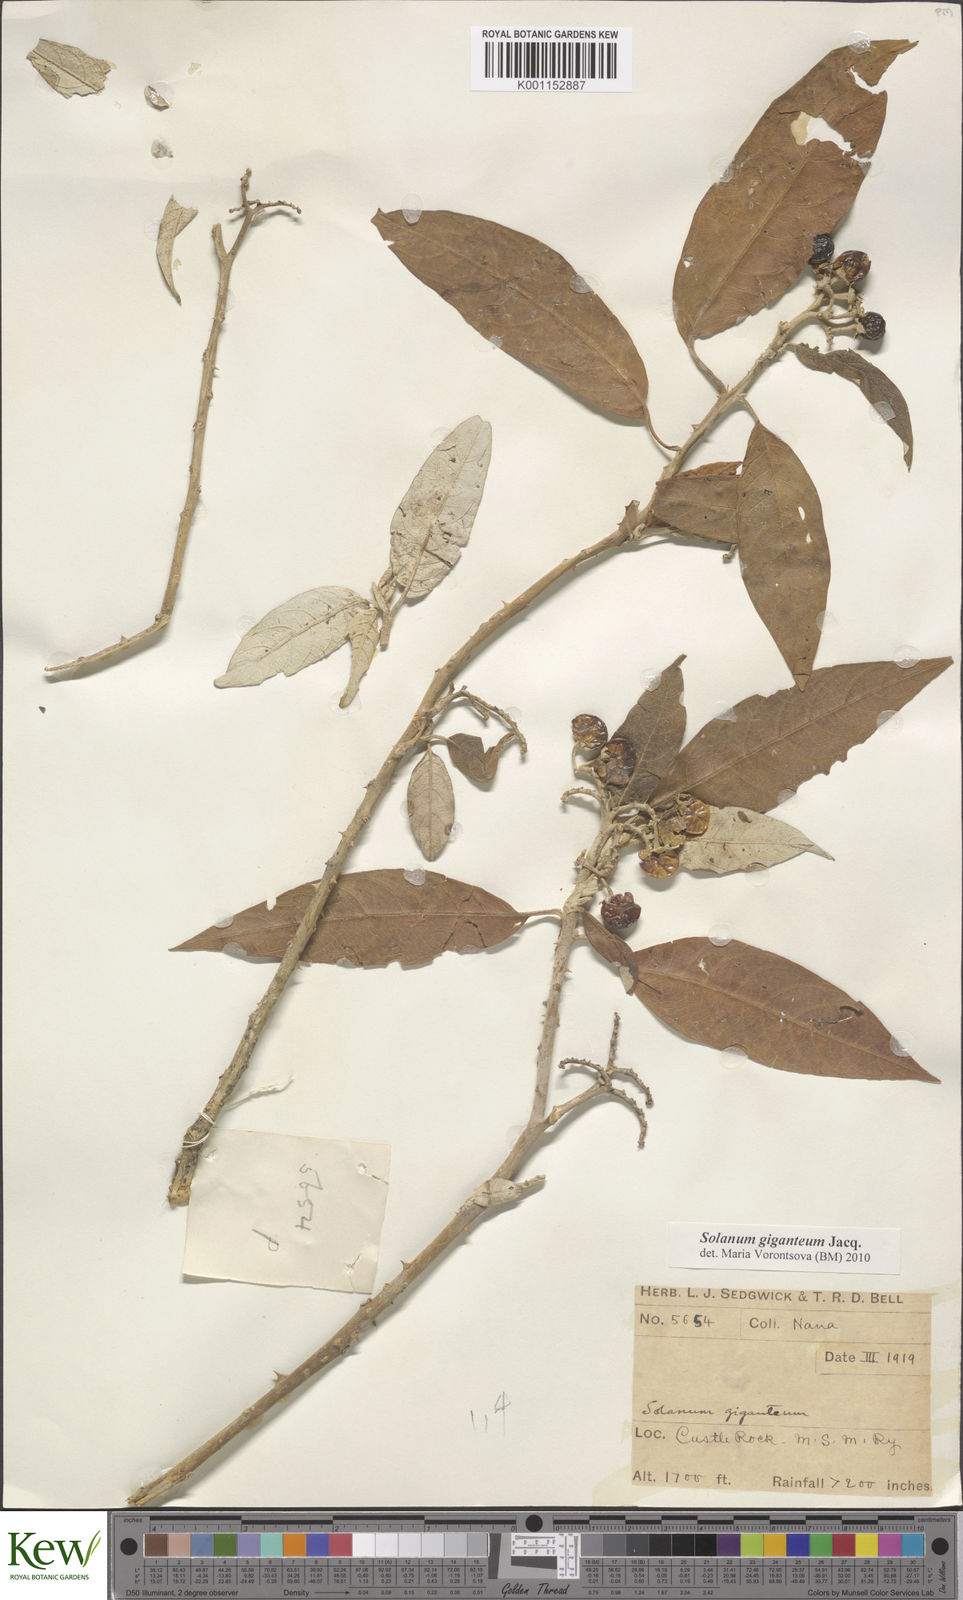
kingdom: Plantae
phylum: Tracheophyta
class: Magnoliopsida
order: Solanales
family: Solanaceae
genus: Solanum
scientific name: Solanum giganteum
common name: Healing-leaf-tree
